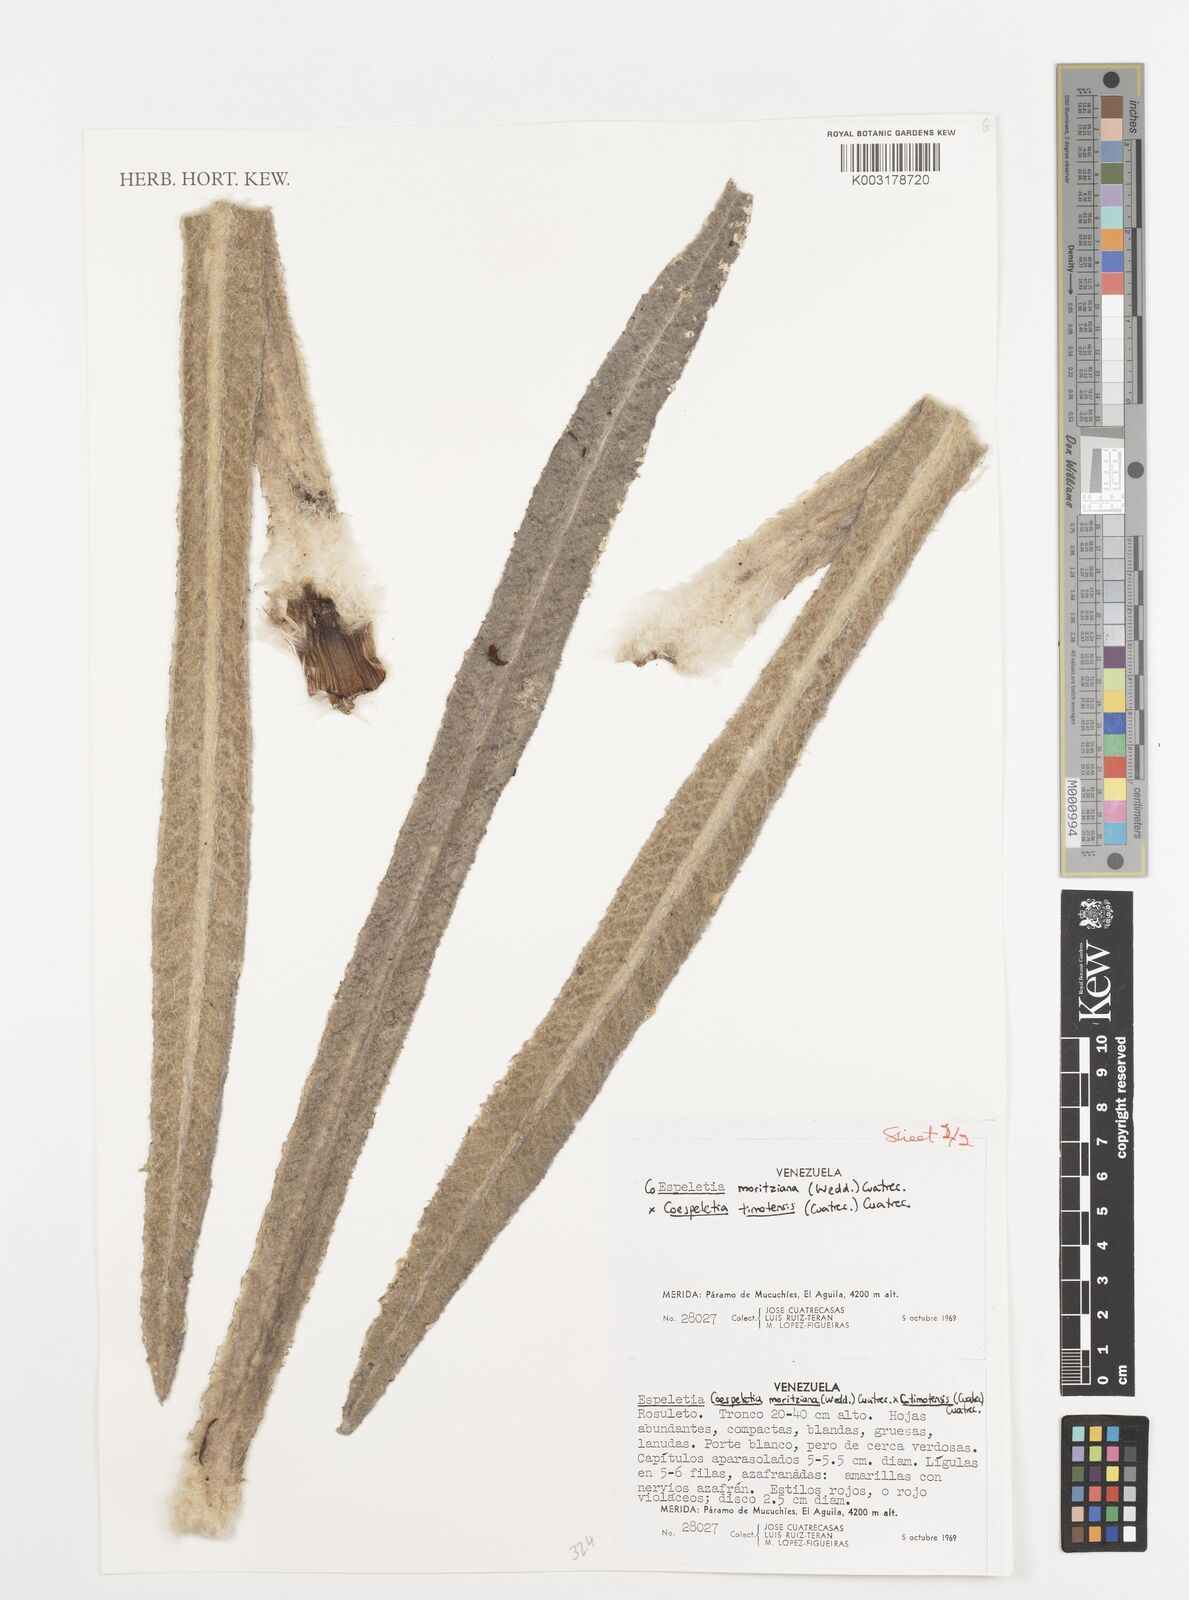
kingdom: Plantae
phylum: Tracheophyta
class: Magnoliopsida
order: Asterales
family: Asteraceae
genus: Espeletia
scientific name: Espeletia
